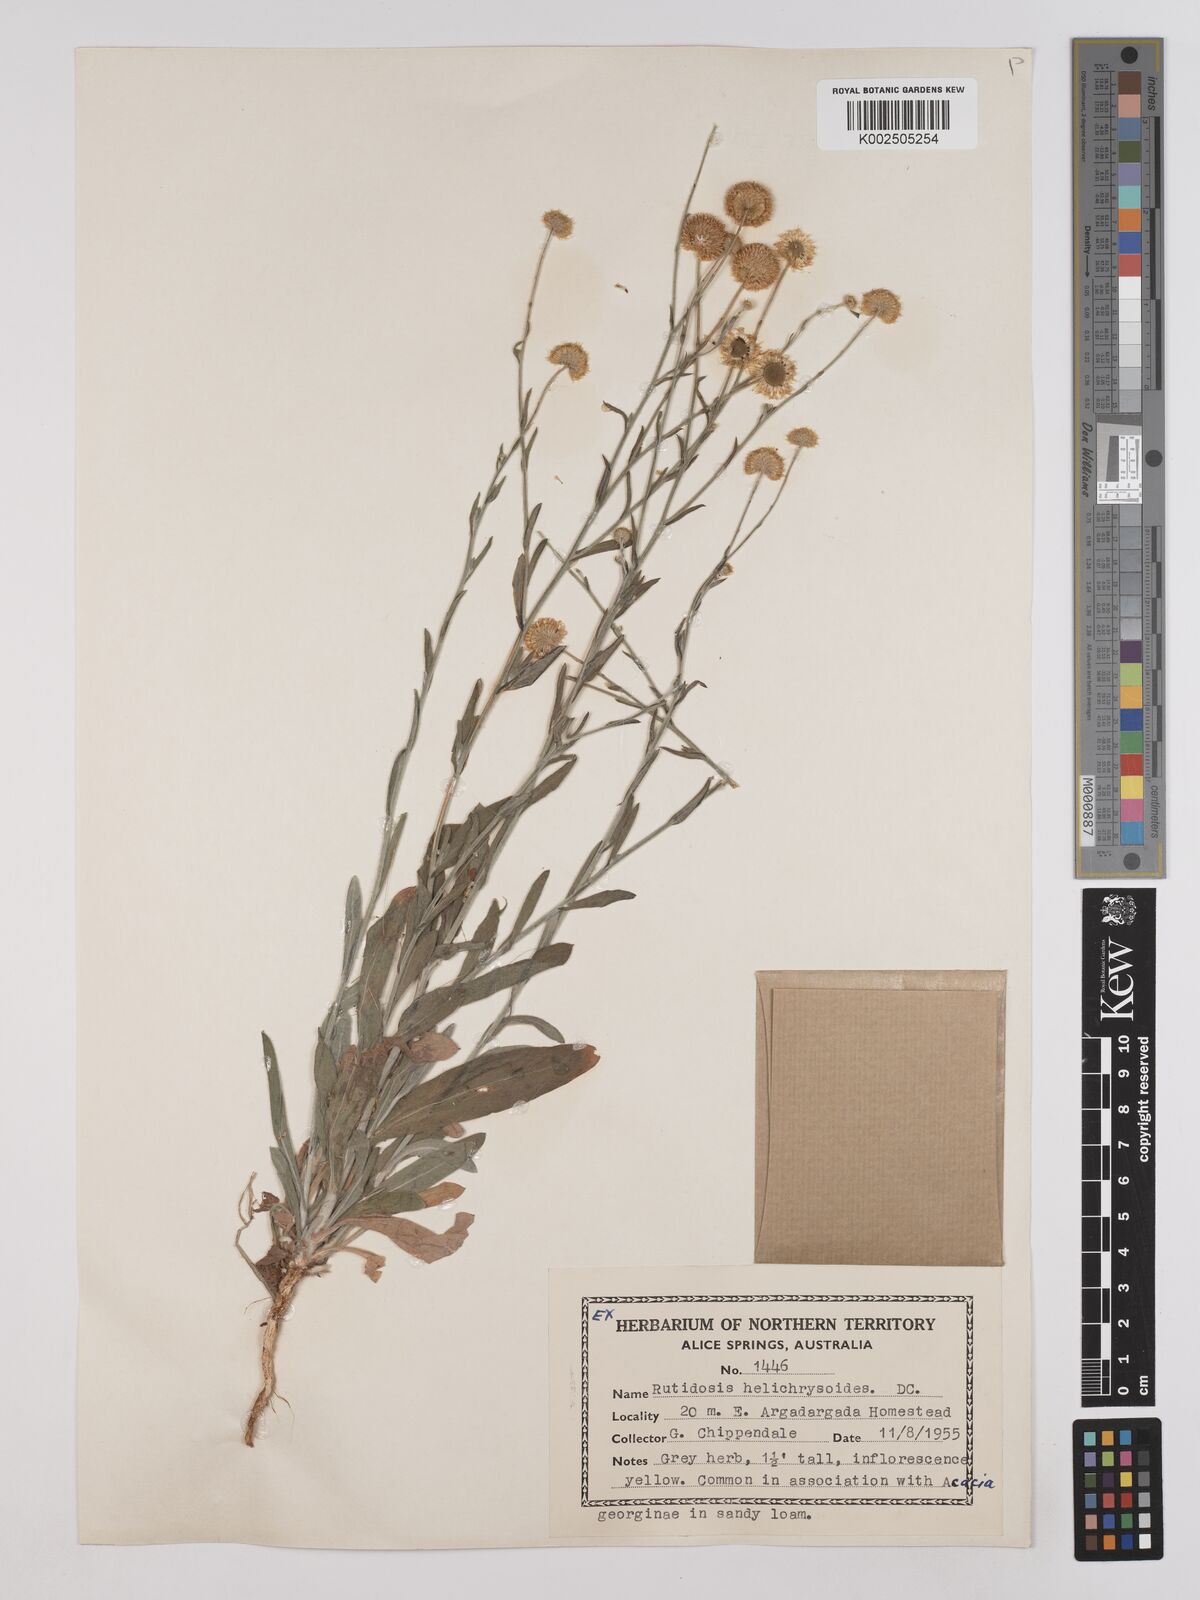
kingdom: Plantae
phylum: Tracheophyta
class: Magnoliopsida
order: Asterales
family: Asteraceae
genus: Rutidosis
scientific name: Rutidosis helichrysoides
